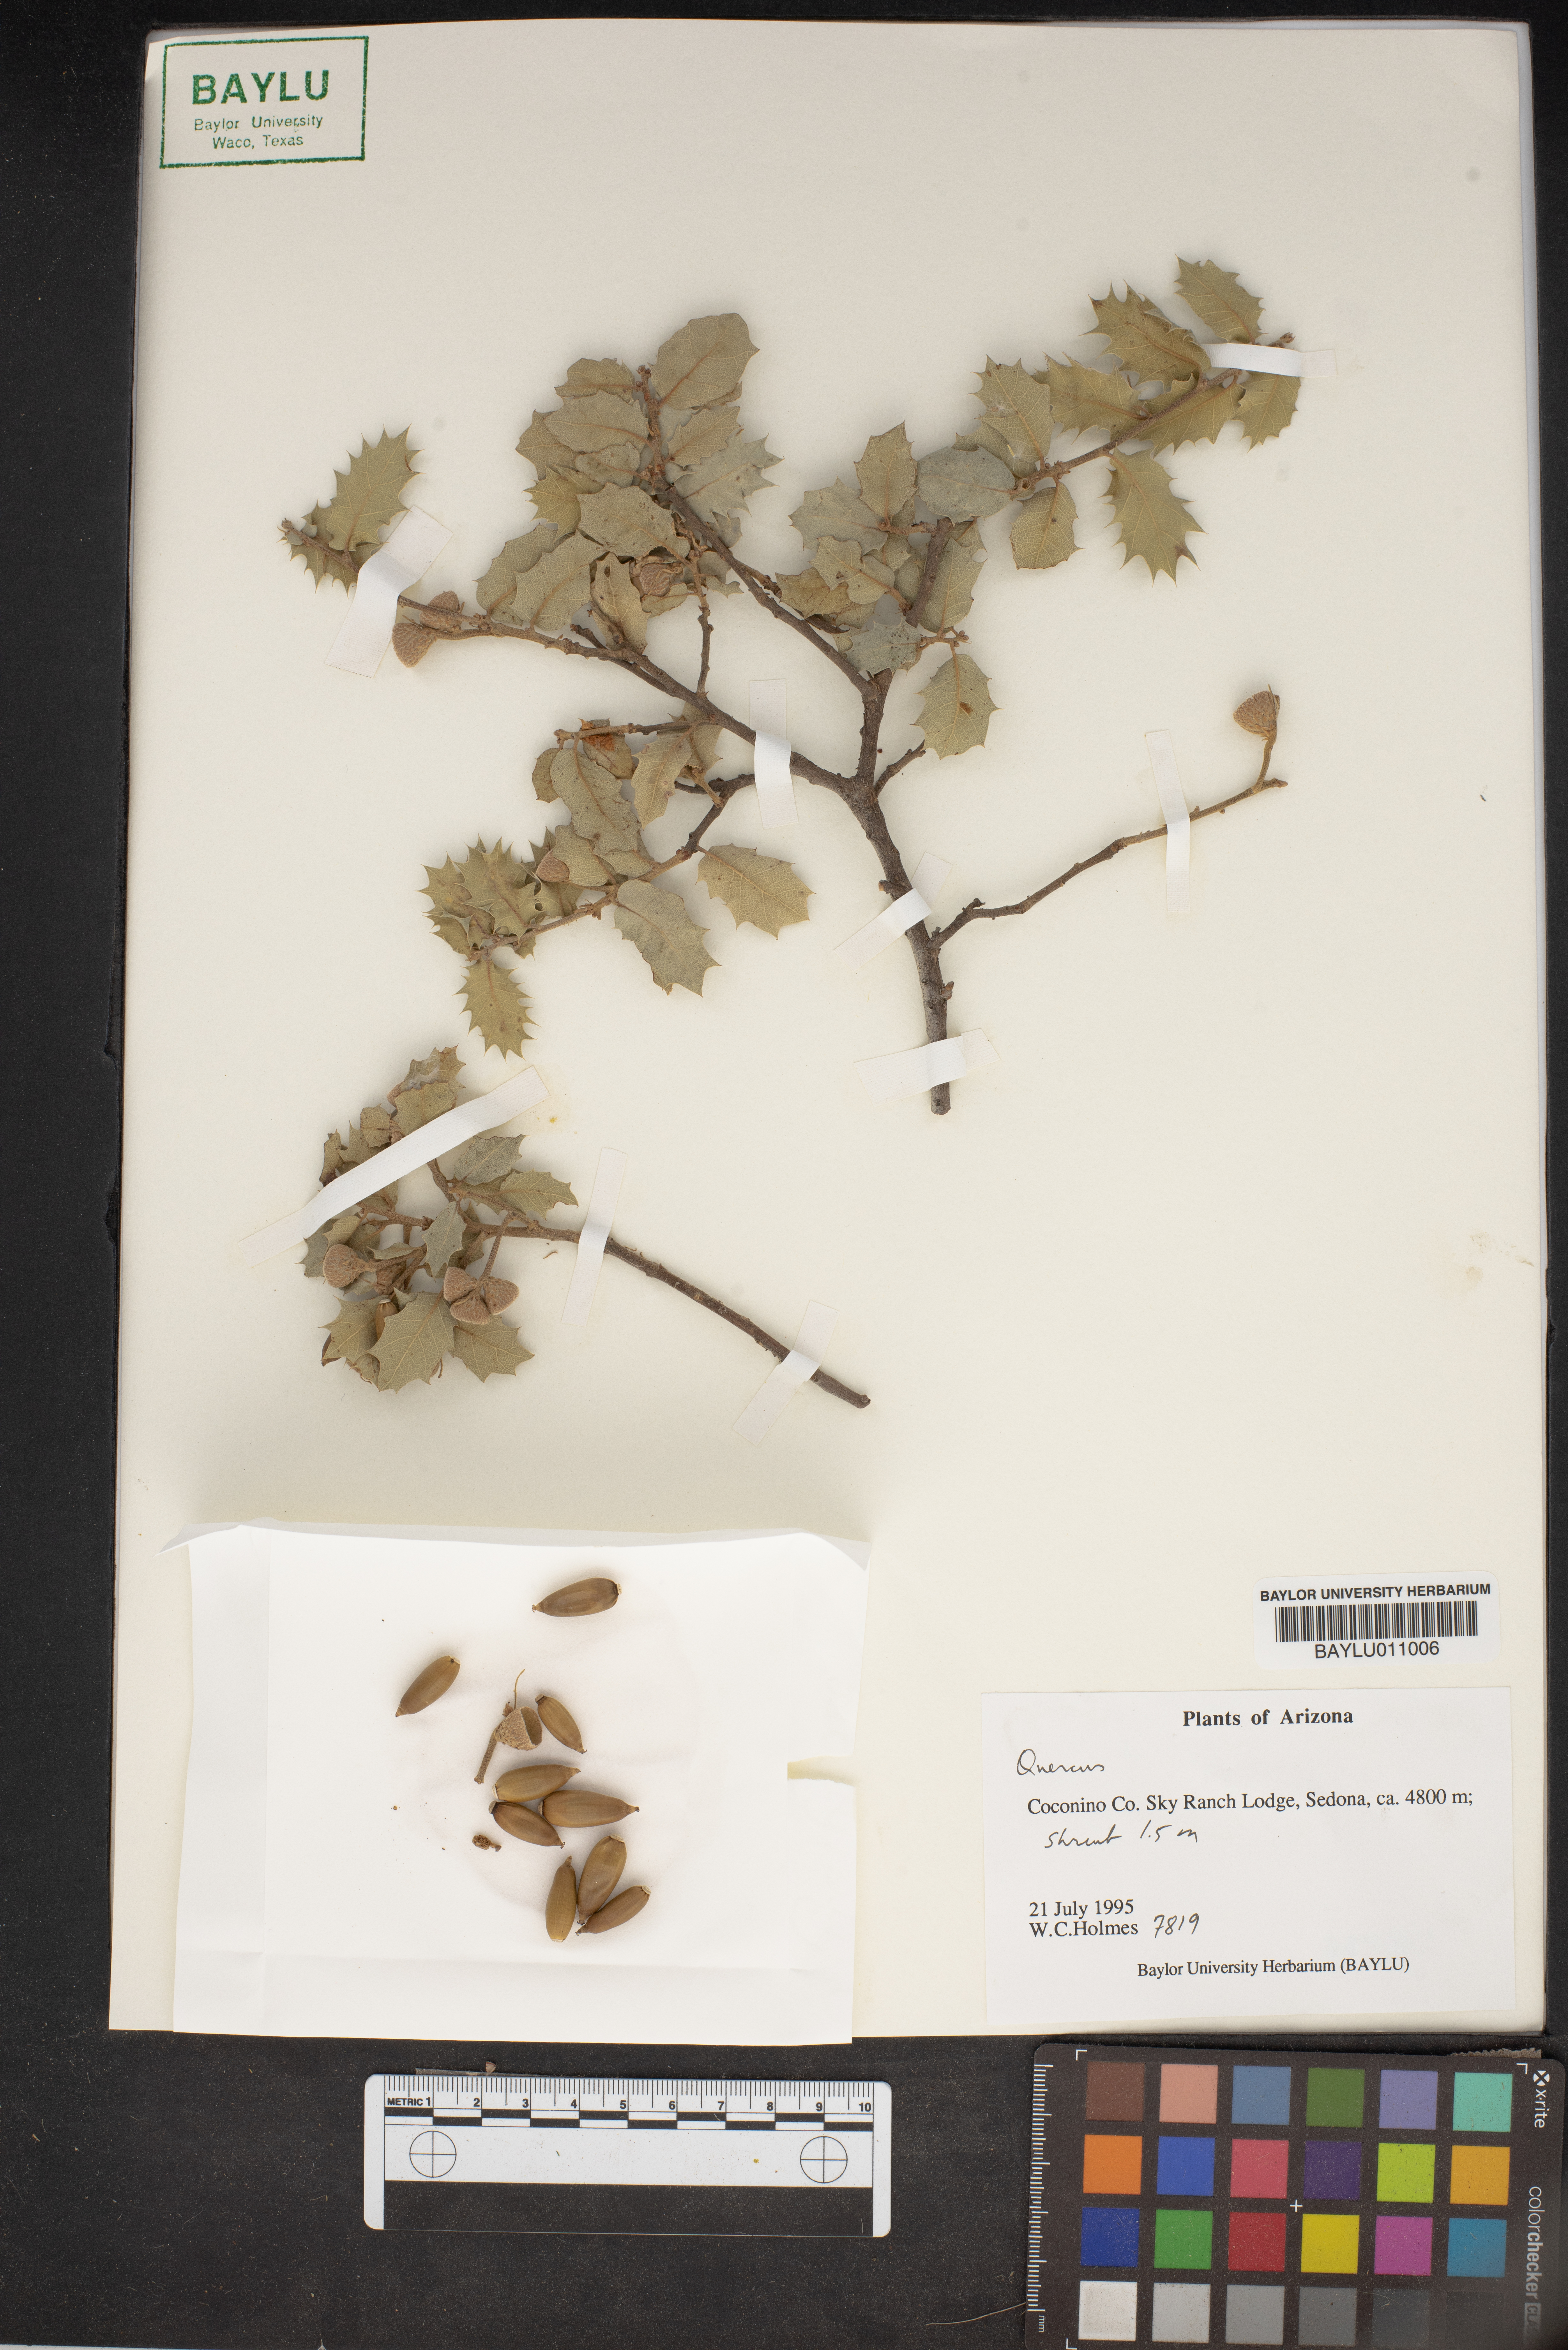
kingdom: Plantae
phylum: Tracheophyta
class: Magnoliopsida
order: Fagales
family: Fagaceae
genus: Quercus
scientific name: Quercus
